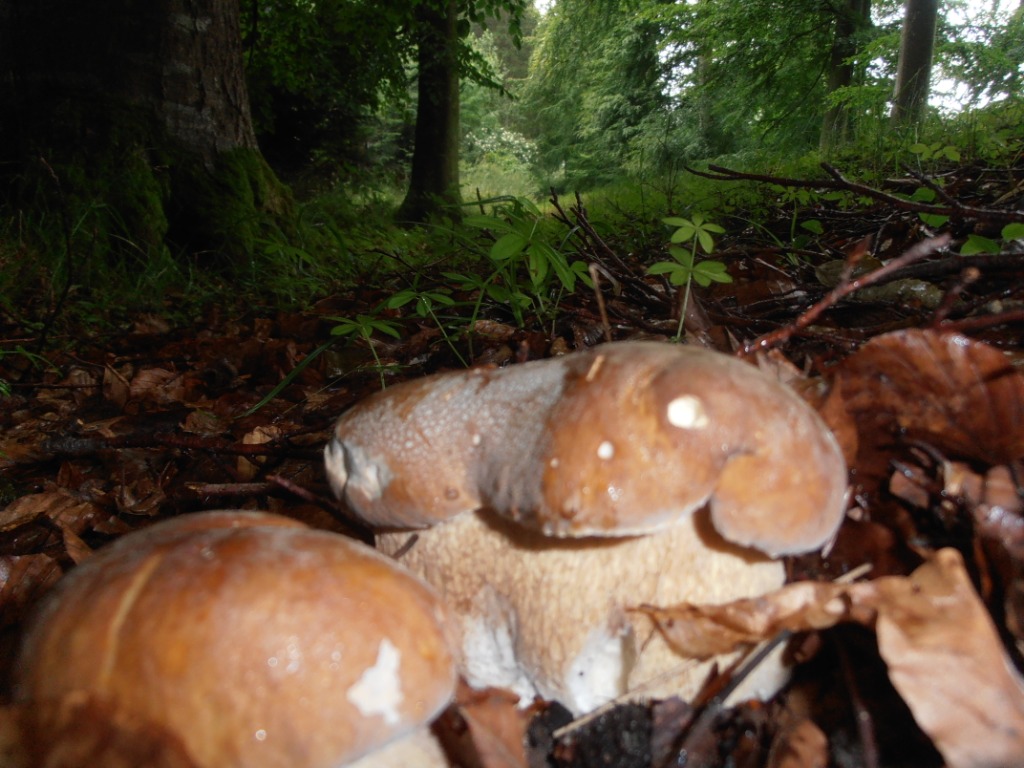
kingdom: Fungi
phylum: Basidiomycota
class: Agaricomycetes
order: Boletales
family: Boletaceae
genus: Boletus
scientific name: Boletus reticulatus
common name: sommer-rørhat
